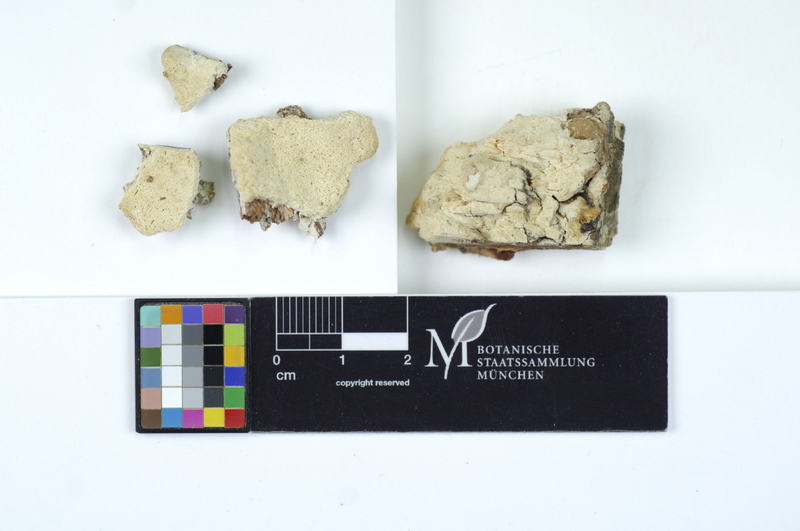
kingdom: Fungi
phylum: Basidiomycota
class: Agaricomycetes
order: Polyporales
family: Fomitopsidaceae
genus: Daedalea
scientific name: Daedalea xantha
